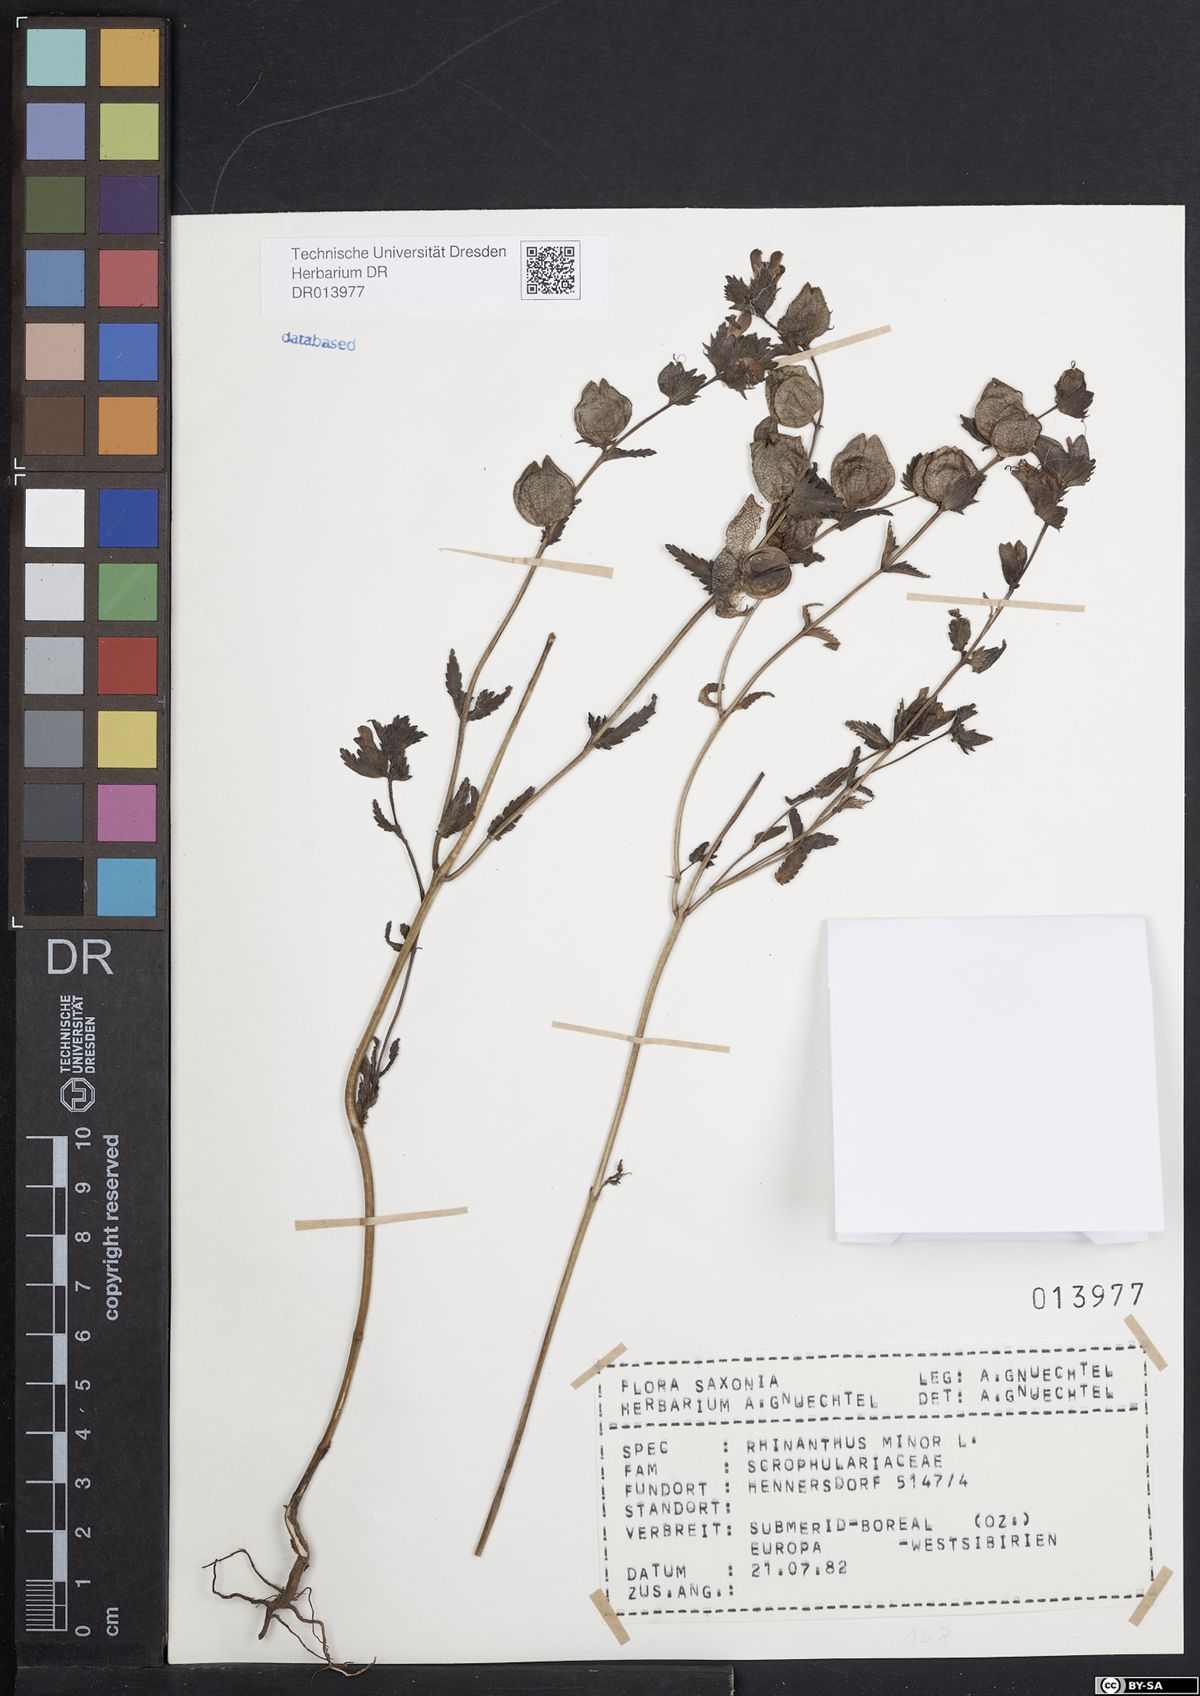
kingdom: Plantae
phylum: Tracheophyta
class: Magnoliopsida
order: Lamiales
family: Orobanchaceae
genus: Rhinanthus
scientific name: Rhinanthus minor
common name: Yellow-rattle
